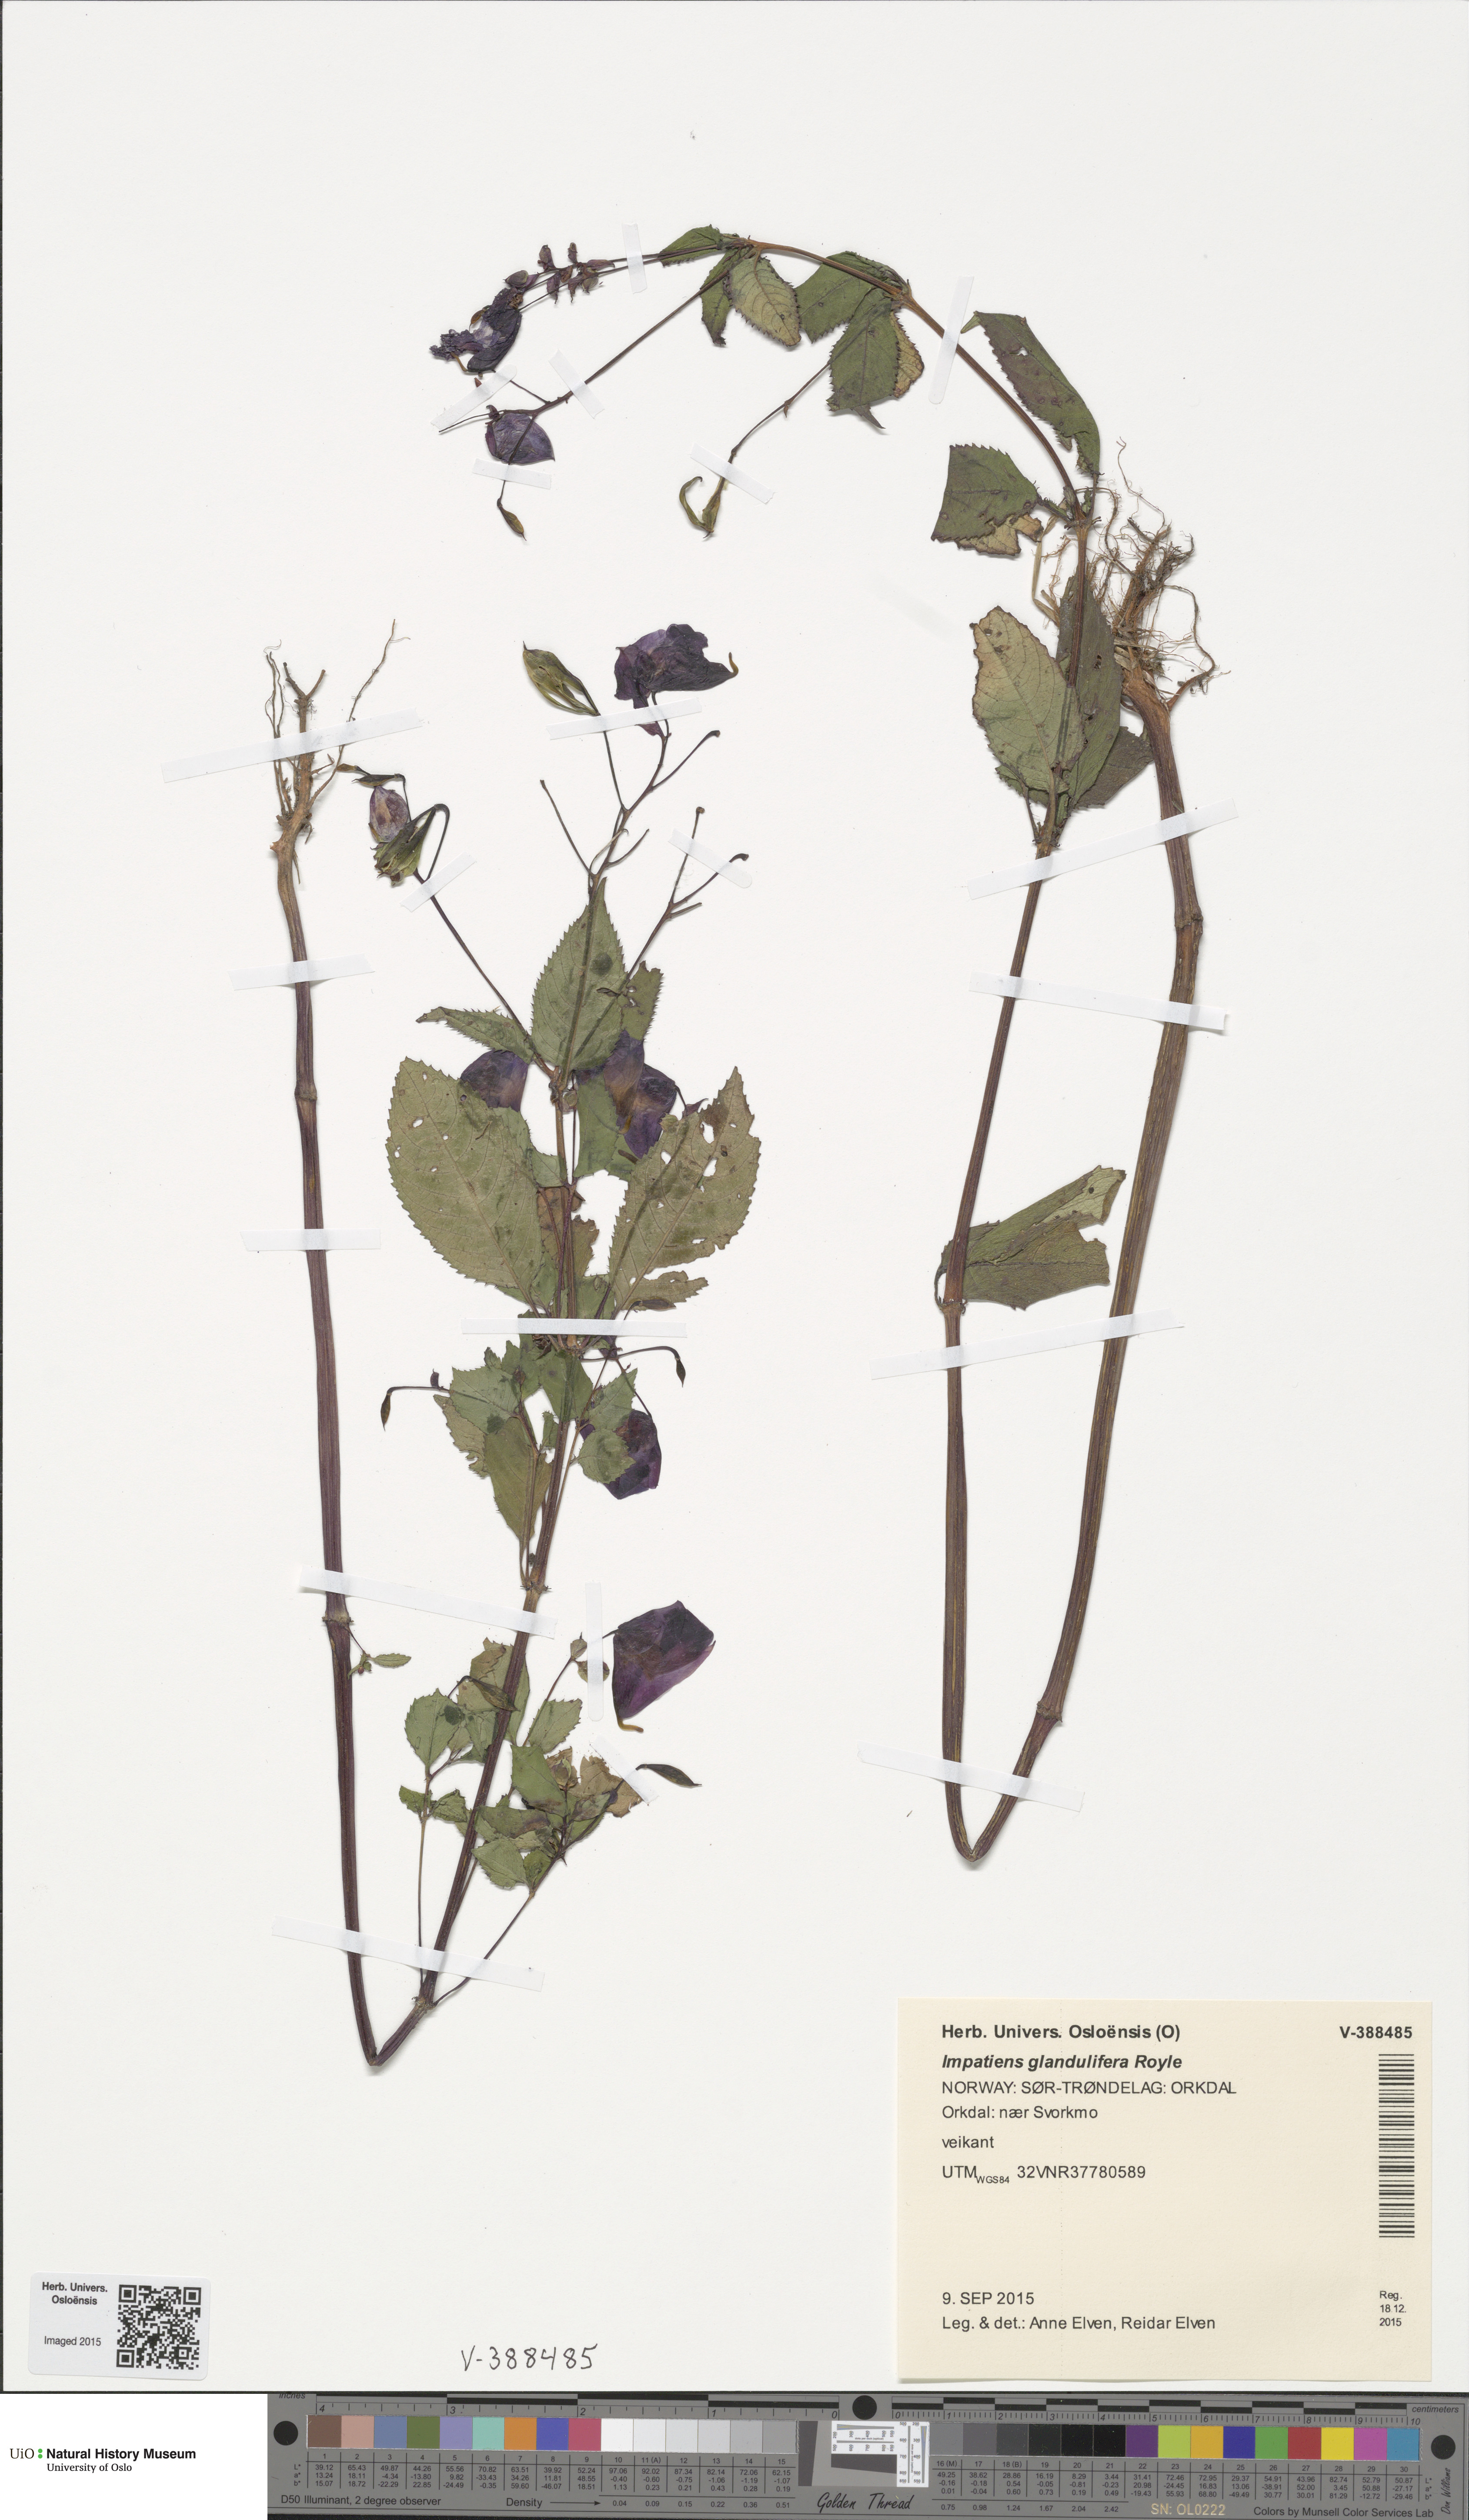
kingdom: Plantae
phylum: Tracheophyta
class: Magnoliopsida
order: Ericales
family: Balsaminaceae
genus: Impatiens
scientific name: Impatiens glandulifera
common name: Himalayan balsam
